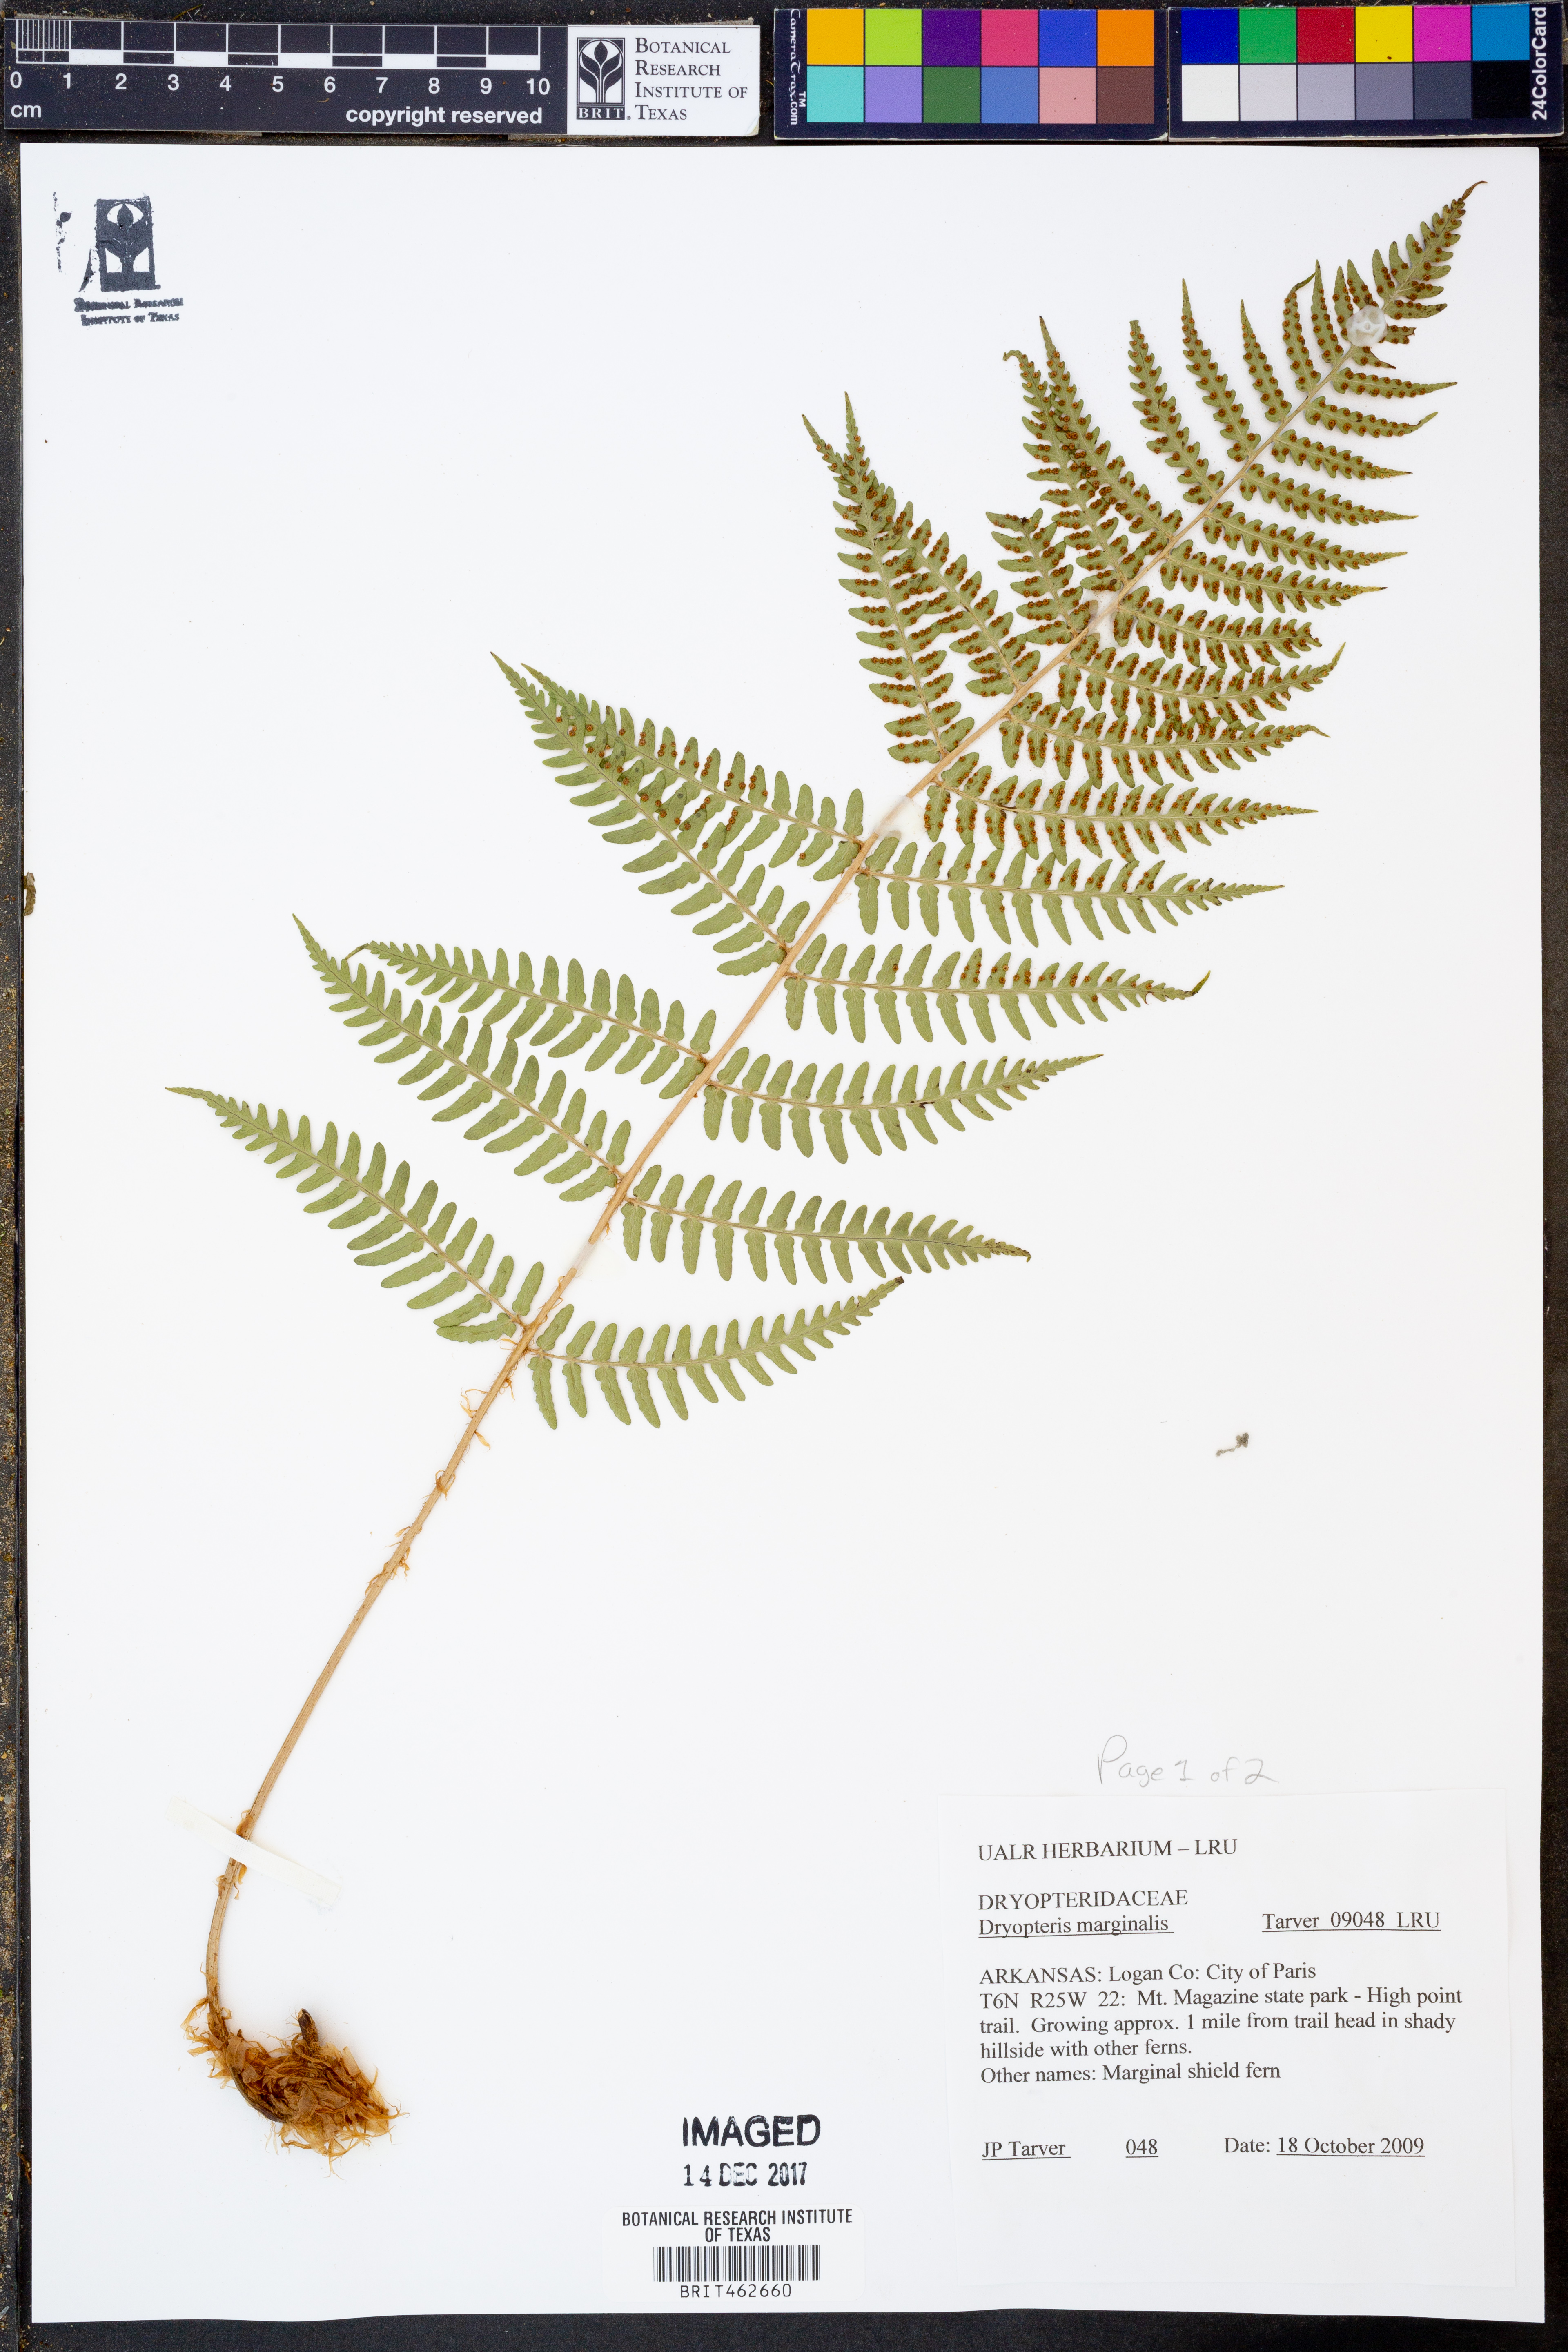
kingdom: Plantae
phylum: Tracheophyta
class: Polypodiopsida
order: Polypodiales
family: Dryopteridaceae
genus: Dryopteris
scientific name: Dryopteris marginalis
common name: Marginal wood fern
